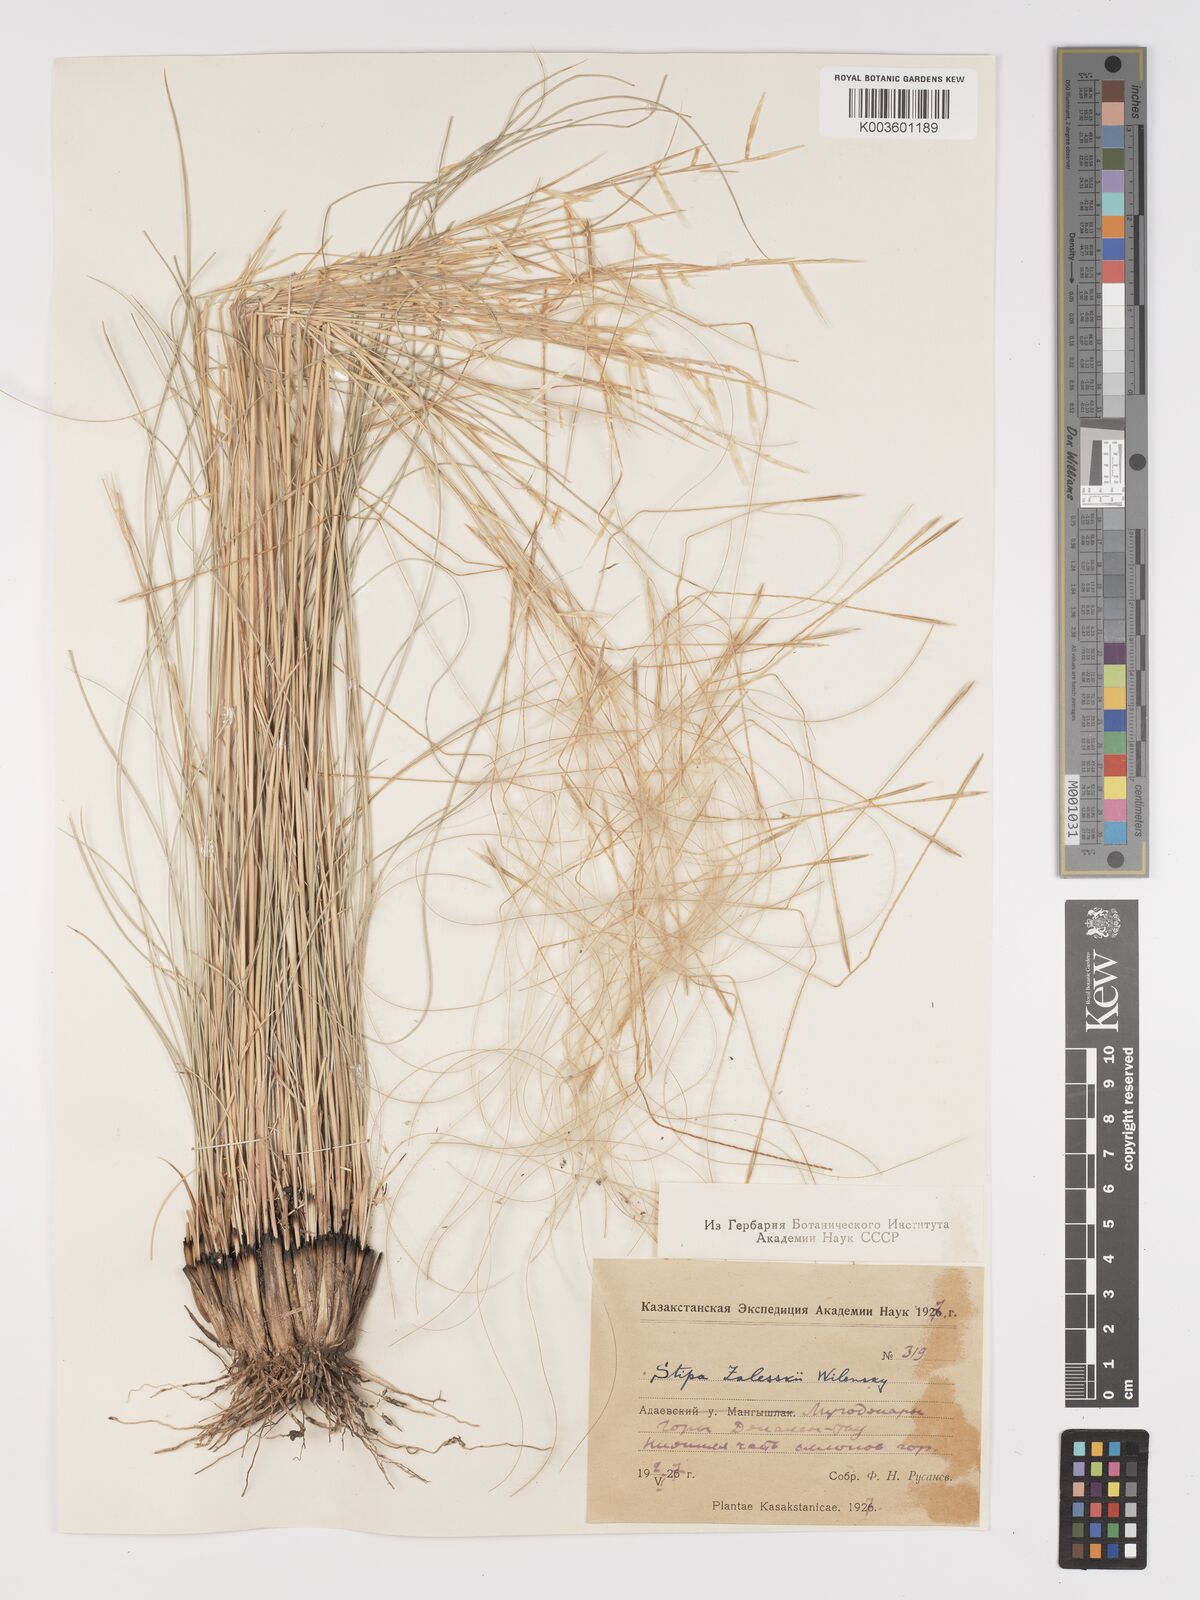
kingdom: Plantae
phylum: Tracheophyta
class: Liliopsida
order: Poales
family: Poaceae
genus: Stipa
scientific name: Stipa
